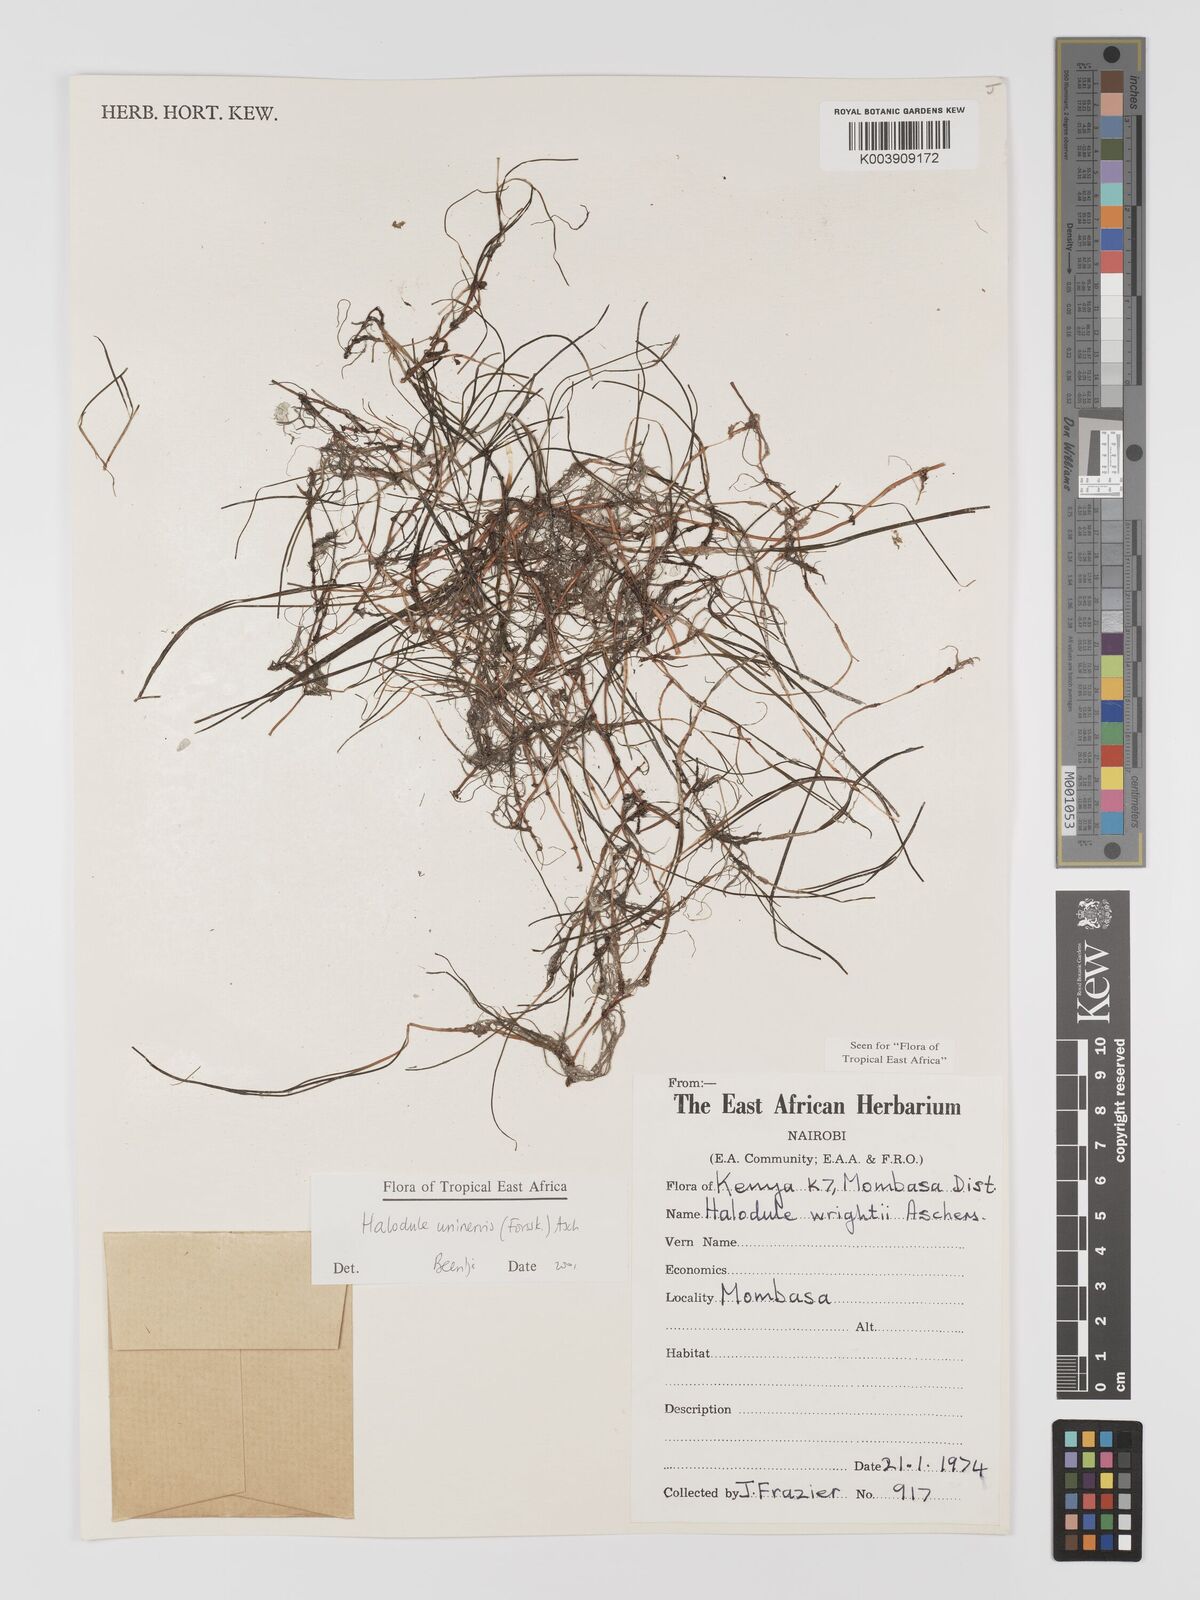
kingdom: Plantae
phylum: Tracheophyta
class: Liliopsida
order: Alismatales
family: Cymodoceaceae
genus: Halodule
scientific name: Halodule uninervis
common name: Narrowleaf seagrass
